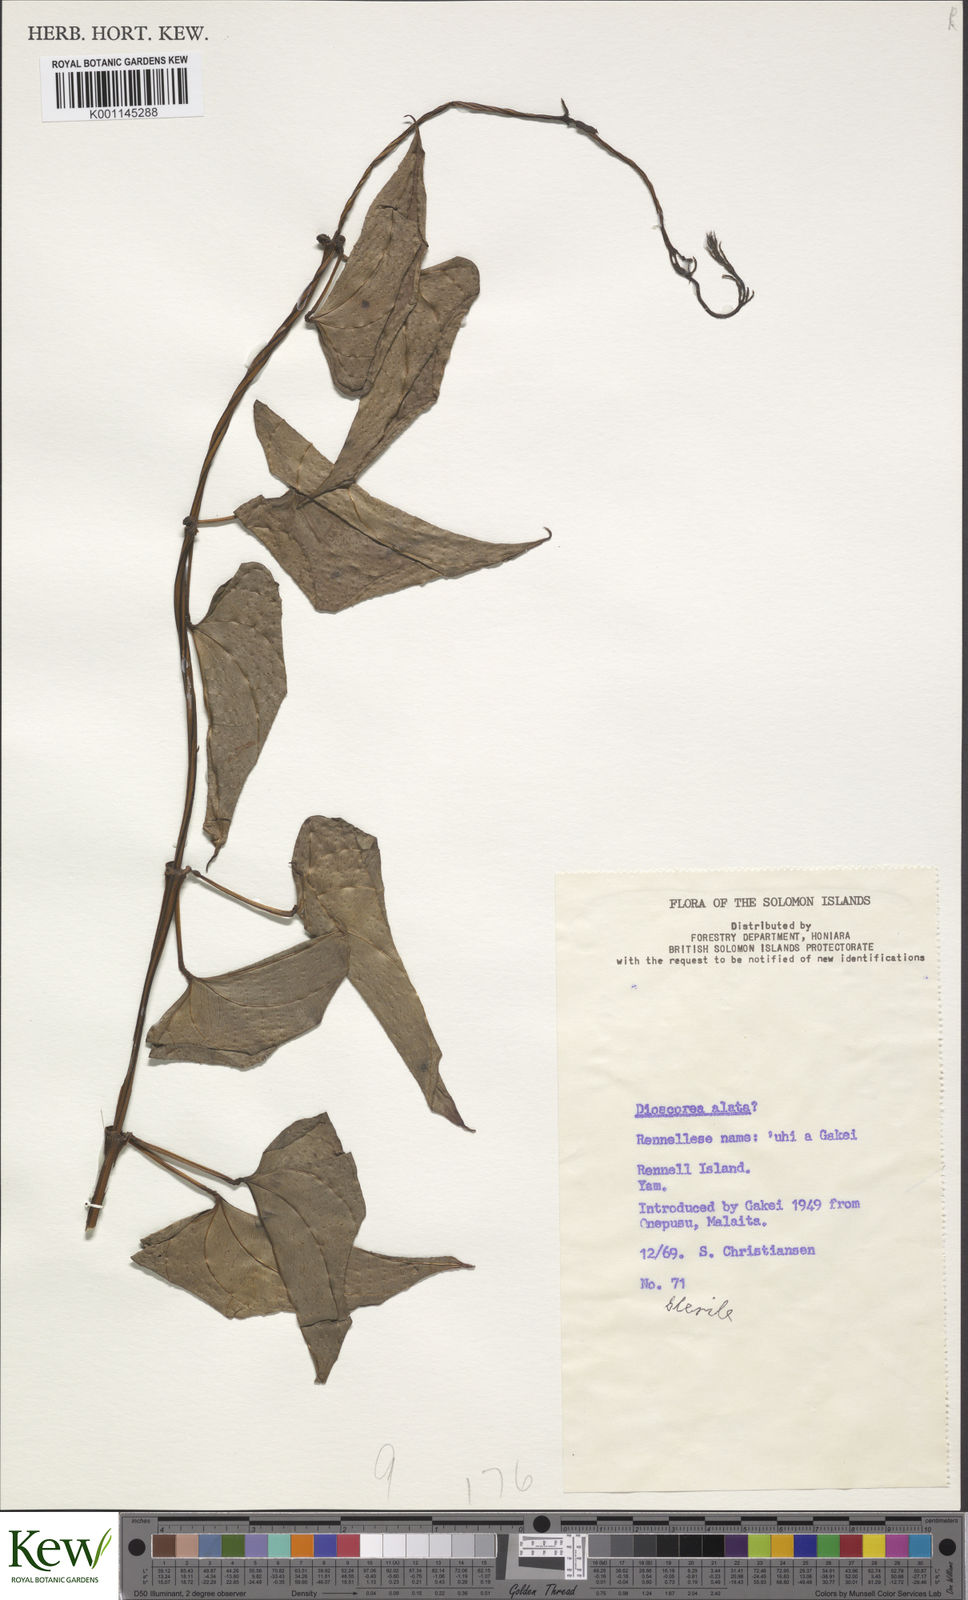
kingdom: Plantae
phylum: Tracheophyta
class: Liliopsida
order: Dioscoreales
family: Dioscoreaceae
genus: Dioscorea
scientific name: Dioscorea alata
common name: Water yam
